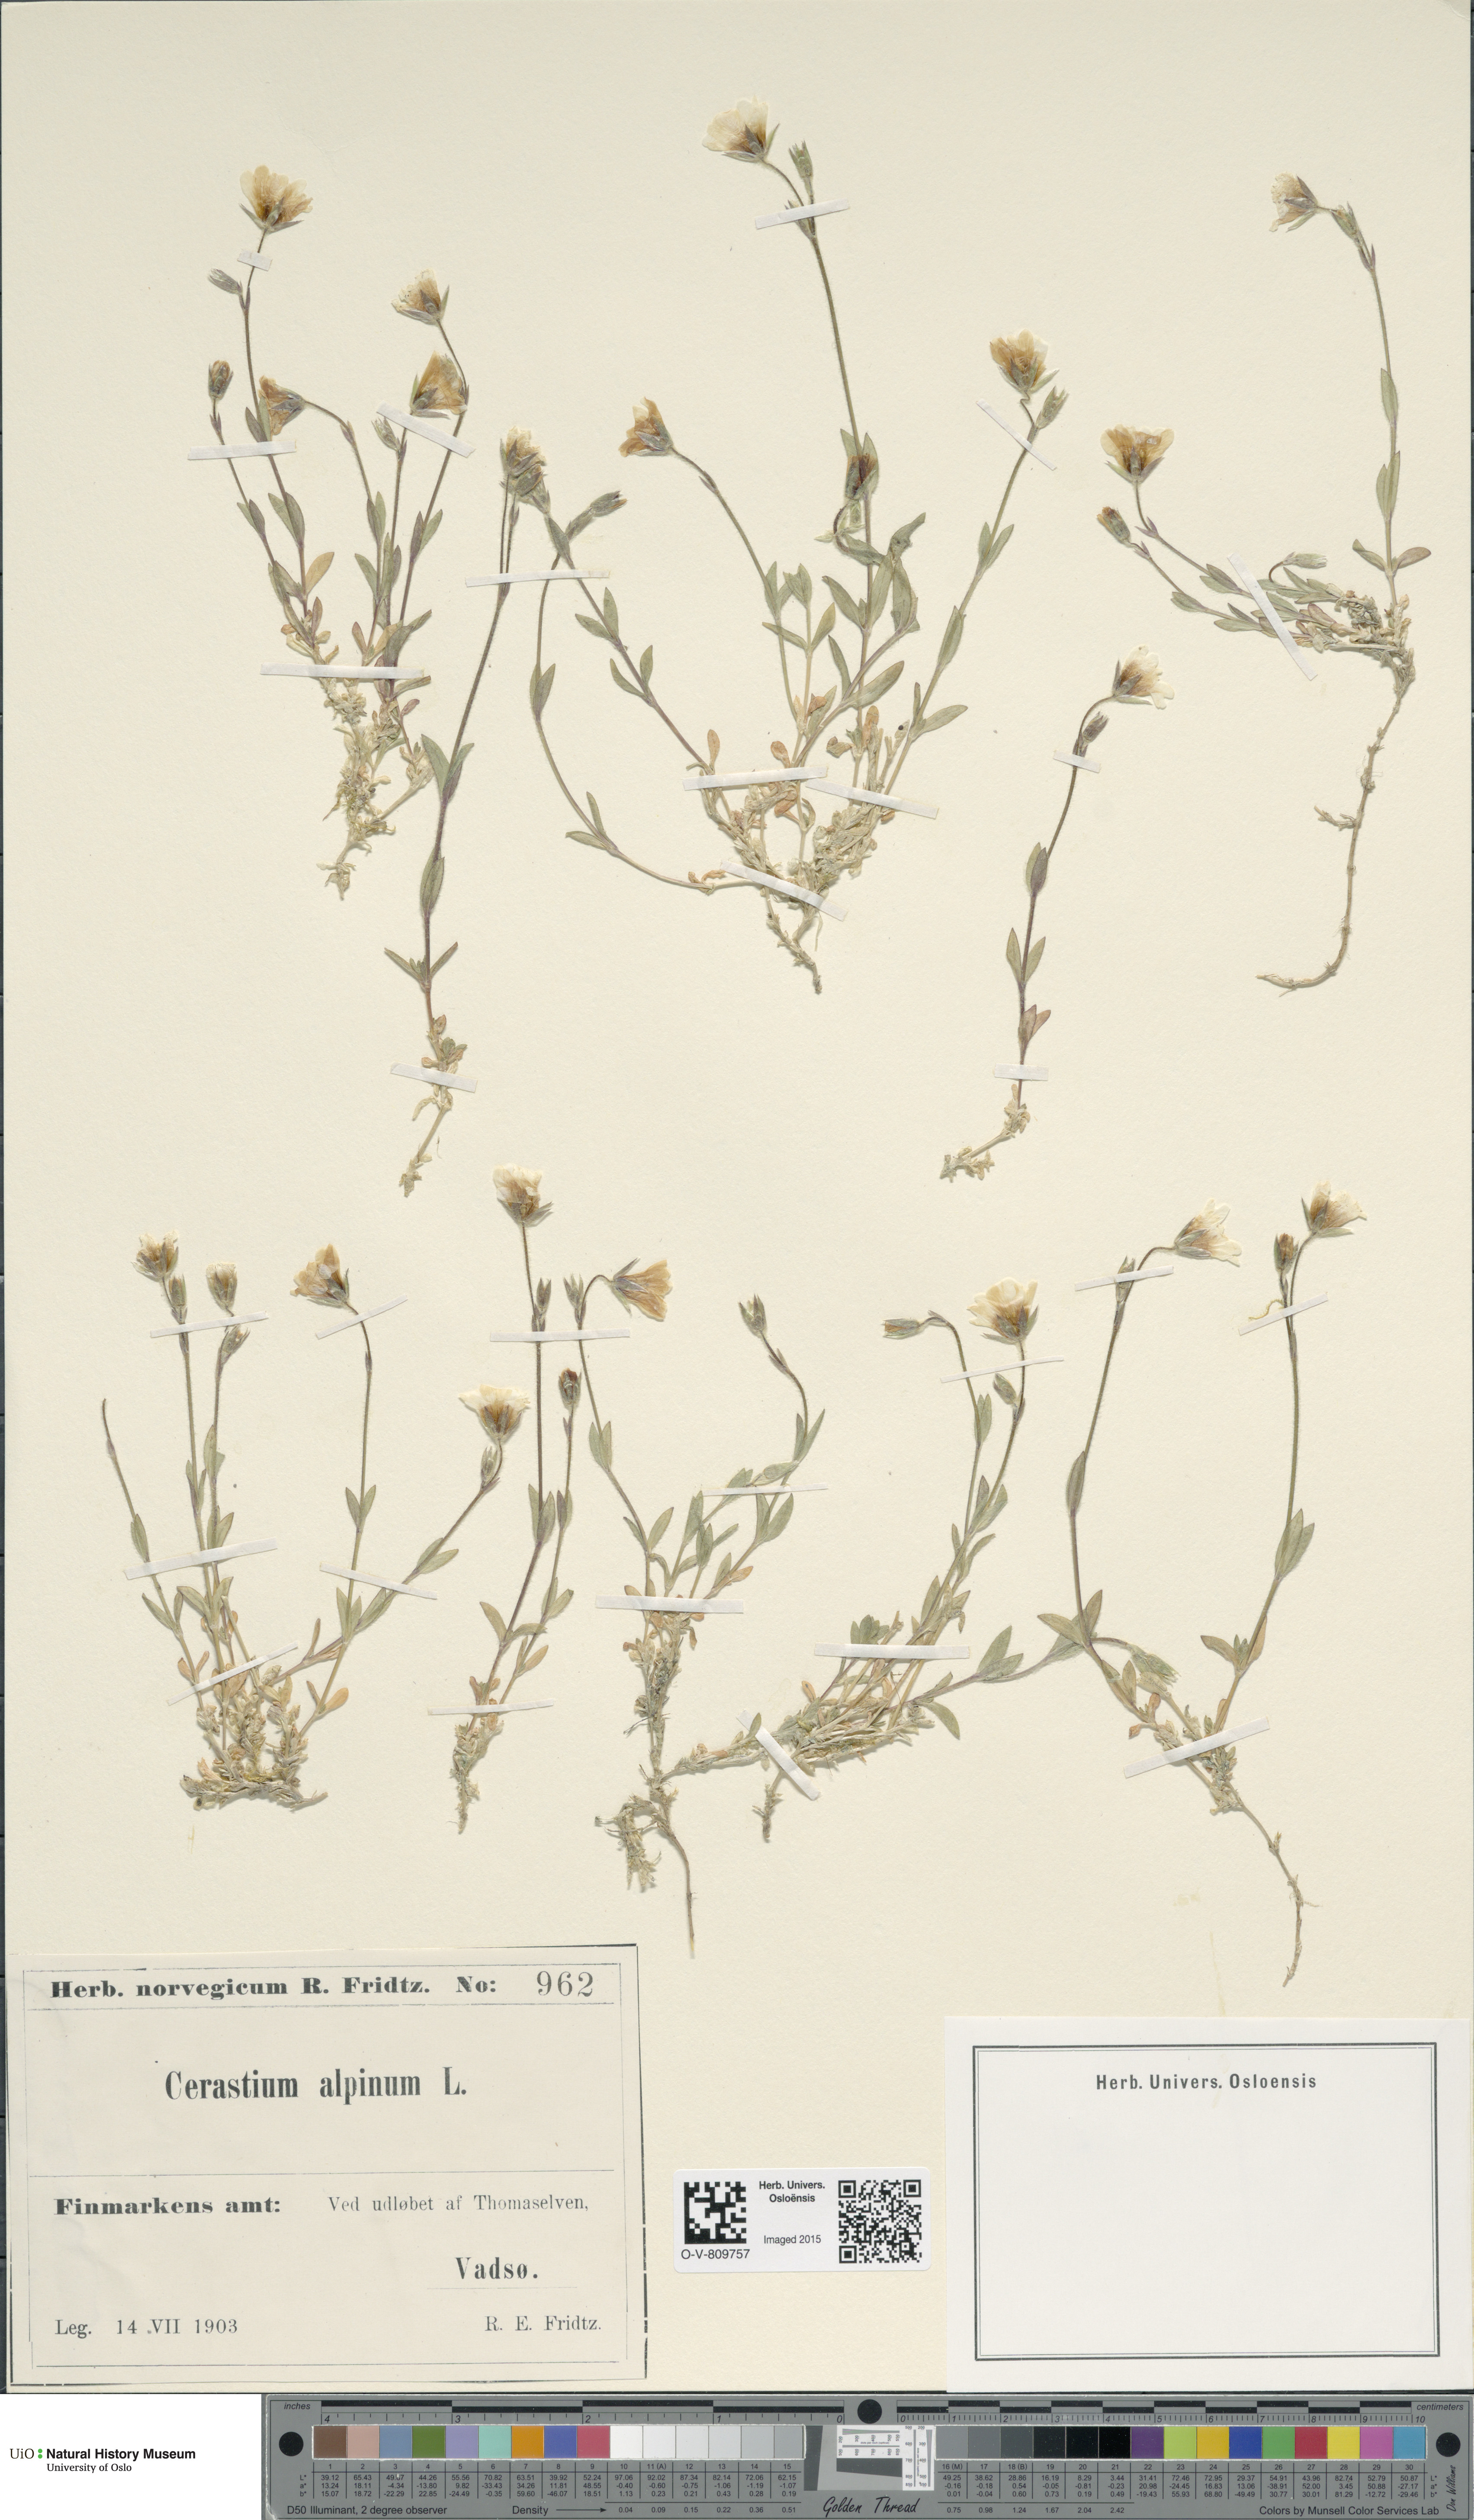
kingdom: Plantae
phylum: Tracheophyta
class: Magnoliopsida
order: Caryophyllales
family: Caryophyllaceae
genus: Cerastium
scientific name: Cerastium alpinum
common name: Alpine mouse-ear
